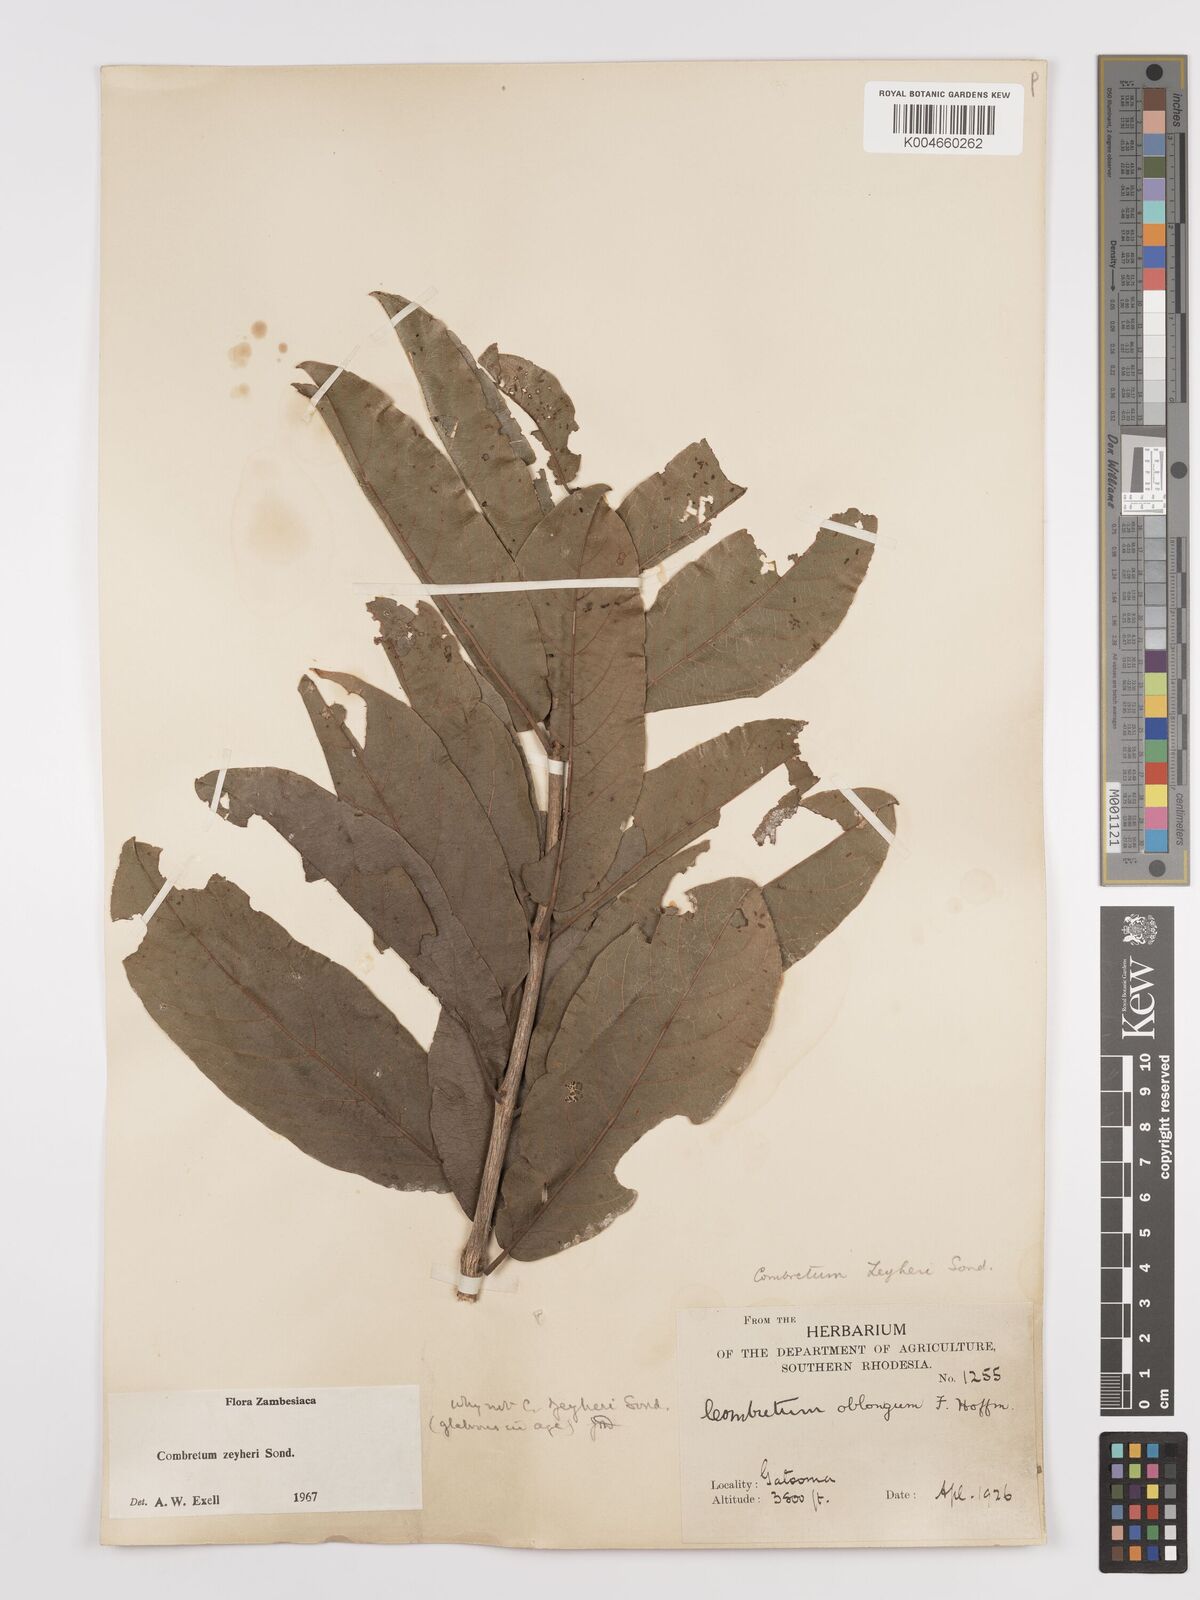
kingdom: Plantae
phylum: Tracheophyta
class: Magnoliopsida
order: Myrtales
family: Combretaceae
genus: Combretum
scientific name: Combretum zeyheri
